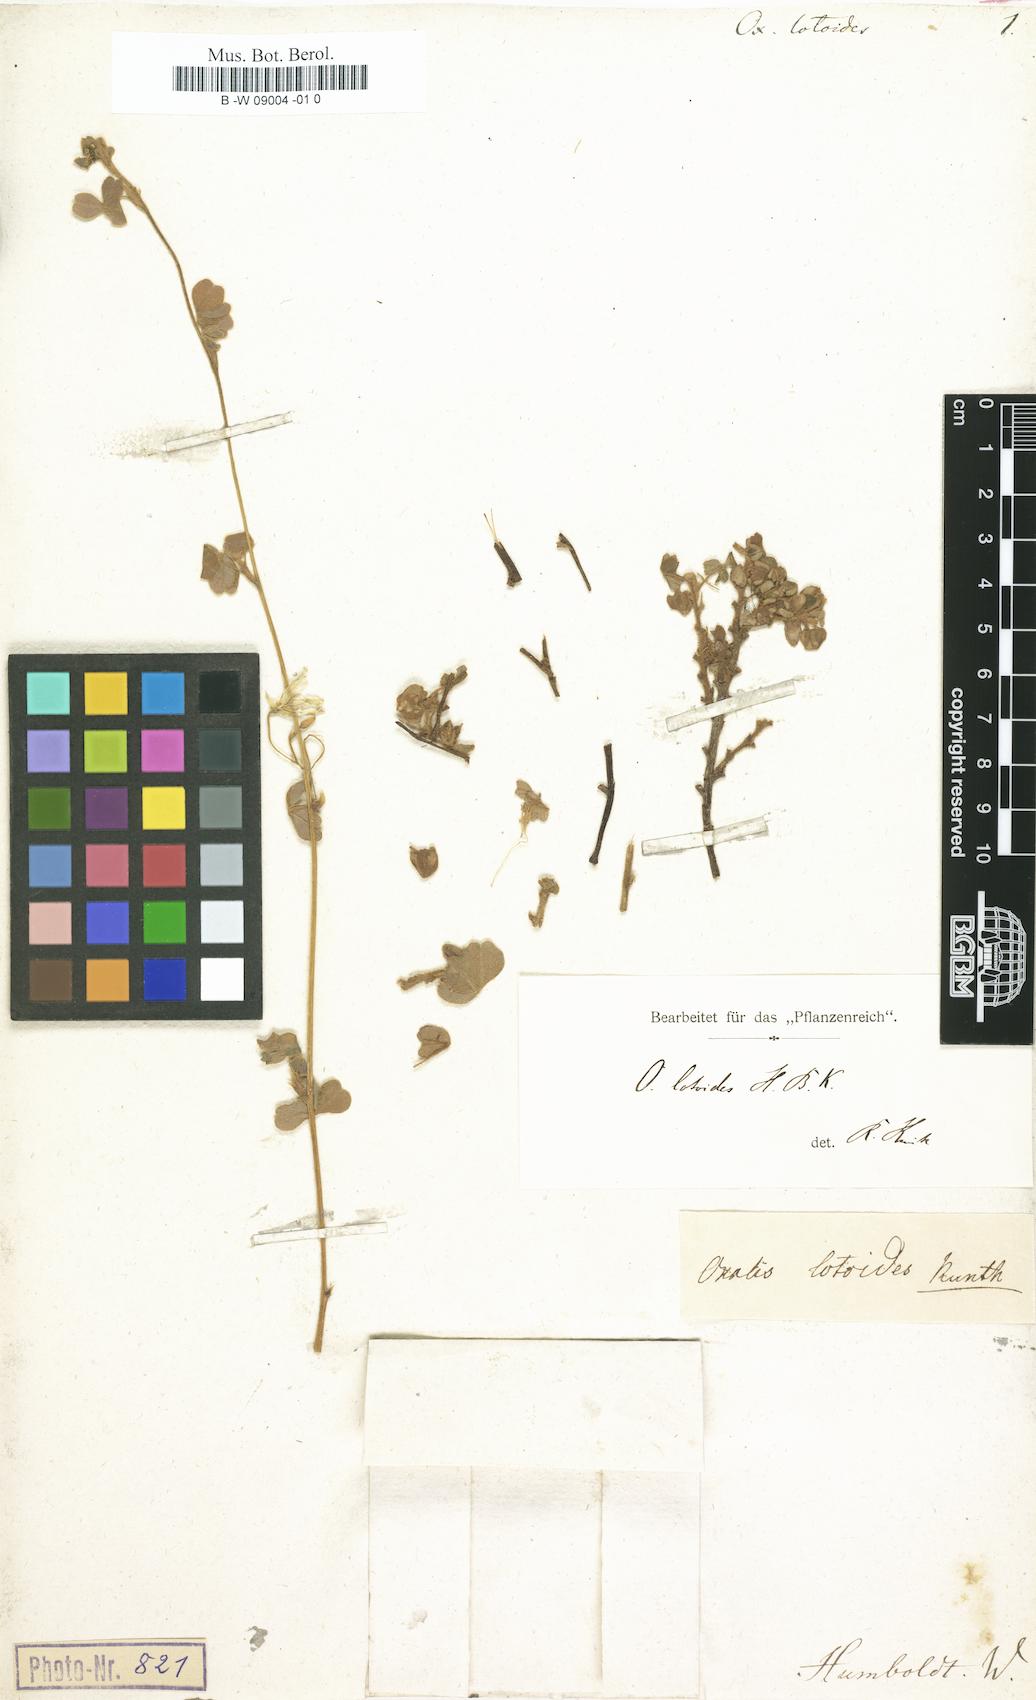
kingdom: Plantae
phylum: Tracheophyta
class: Magnoliopsida
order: Oxalidales
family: Oxalidaceae
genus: Oxalis
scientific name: Oxalis lotoides
